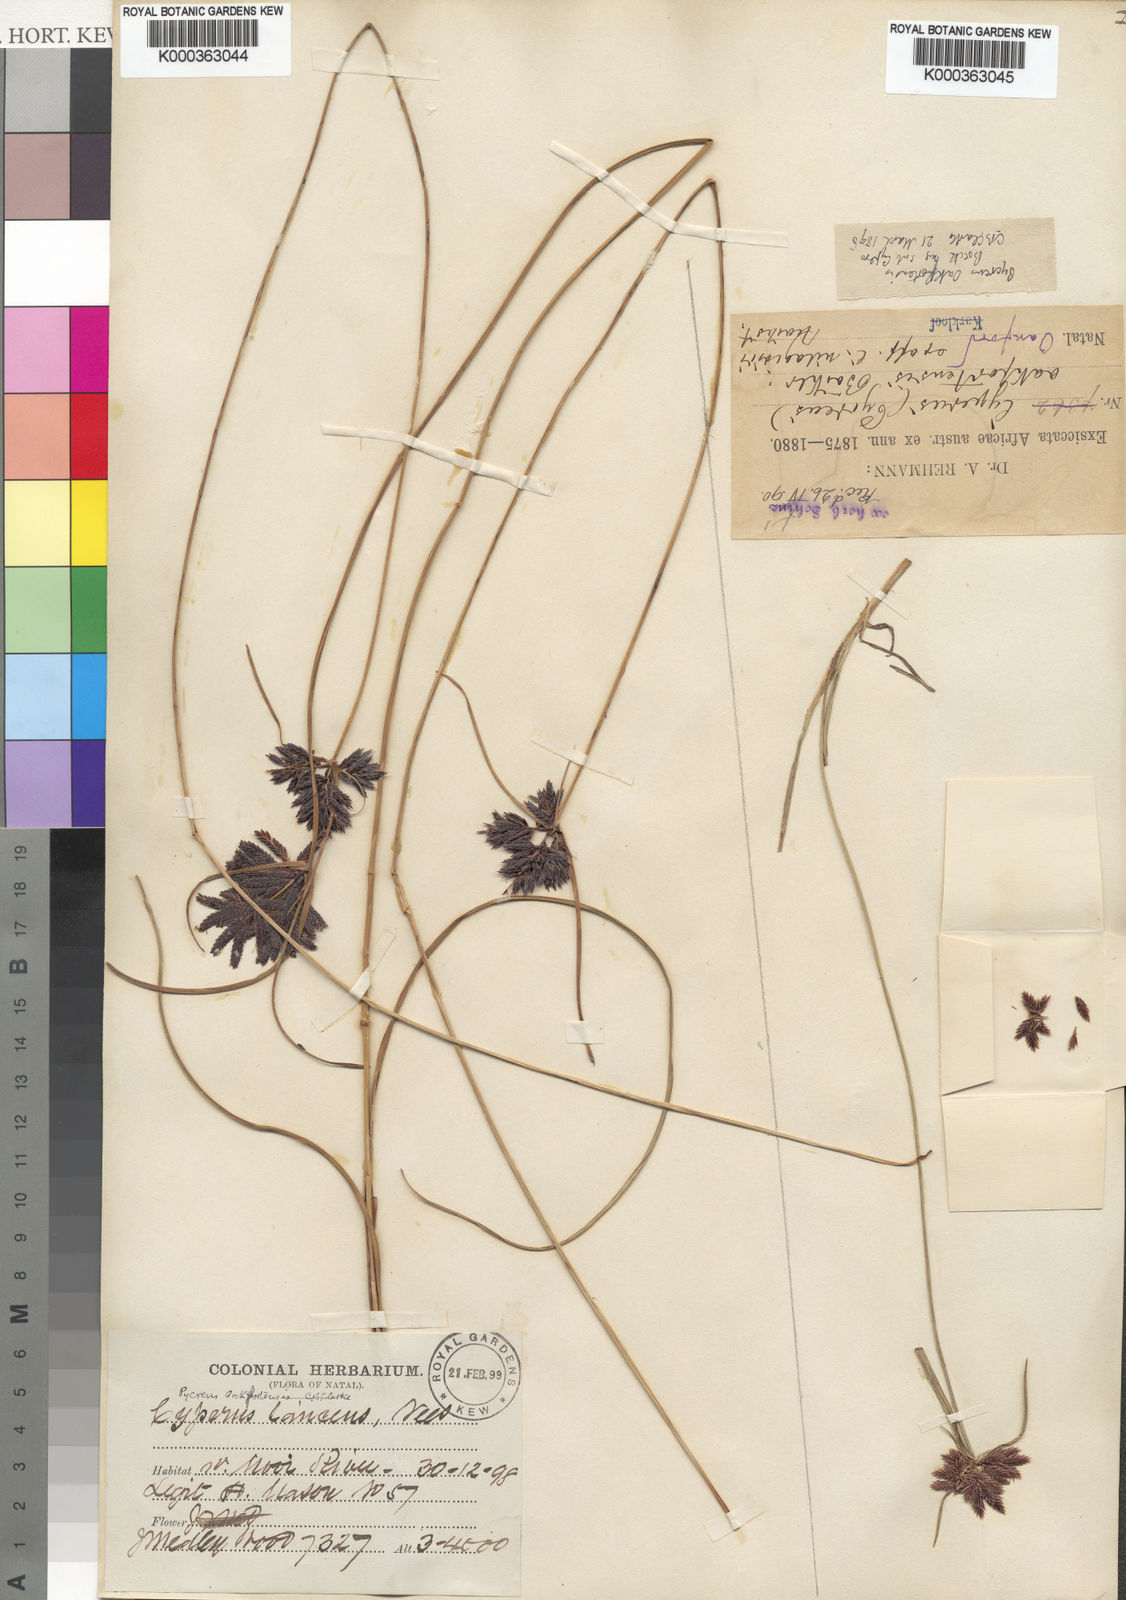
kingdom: Plantae
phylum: Tracheophyta
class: Liliopsida
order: Poales
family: Cyperaceae
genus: Cyperus
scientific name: Cyperus oakfortensis
